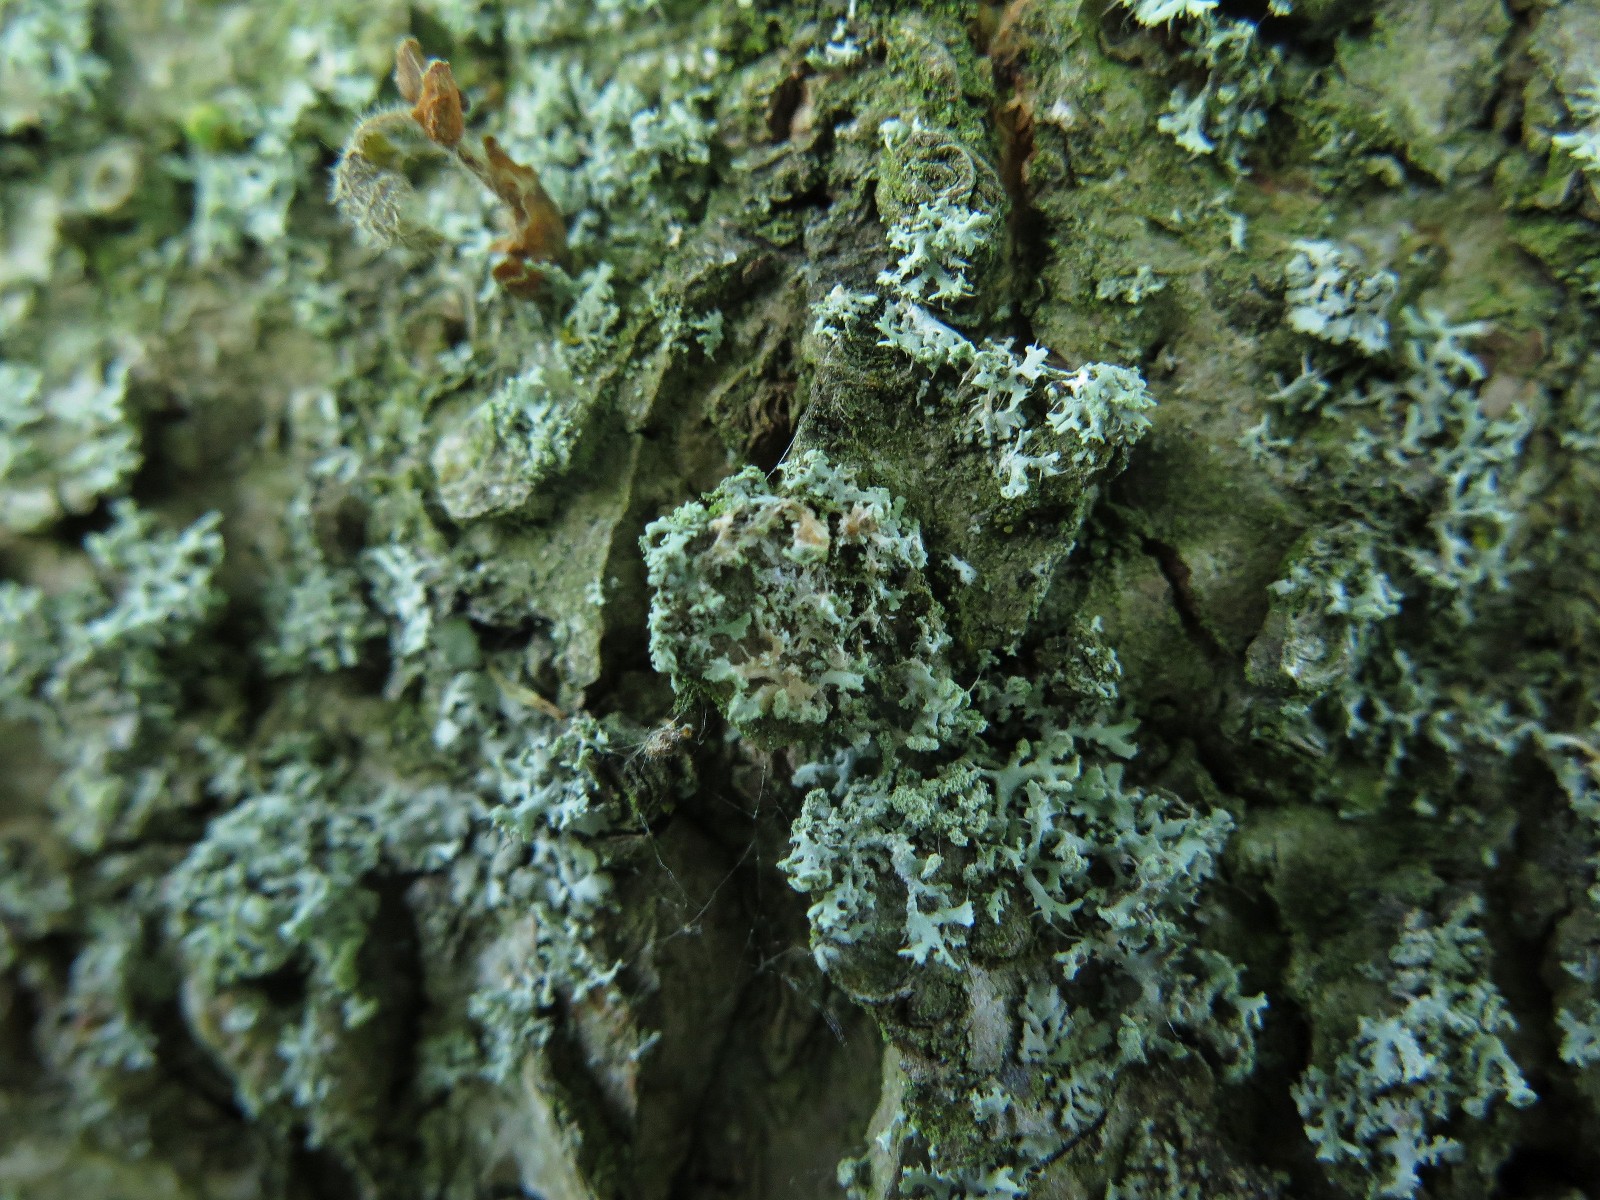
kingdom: Fungi
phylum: Basidiomycota
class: Agaricomycetes
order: Corticiales
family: Corticiaceae
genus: Erythricium
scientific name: Erythricium aurantiacum
